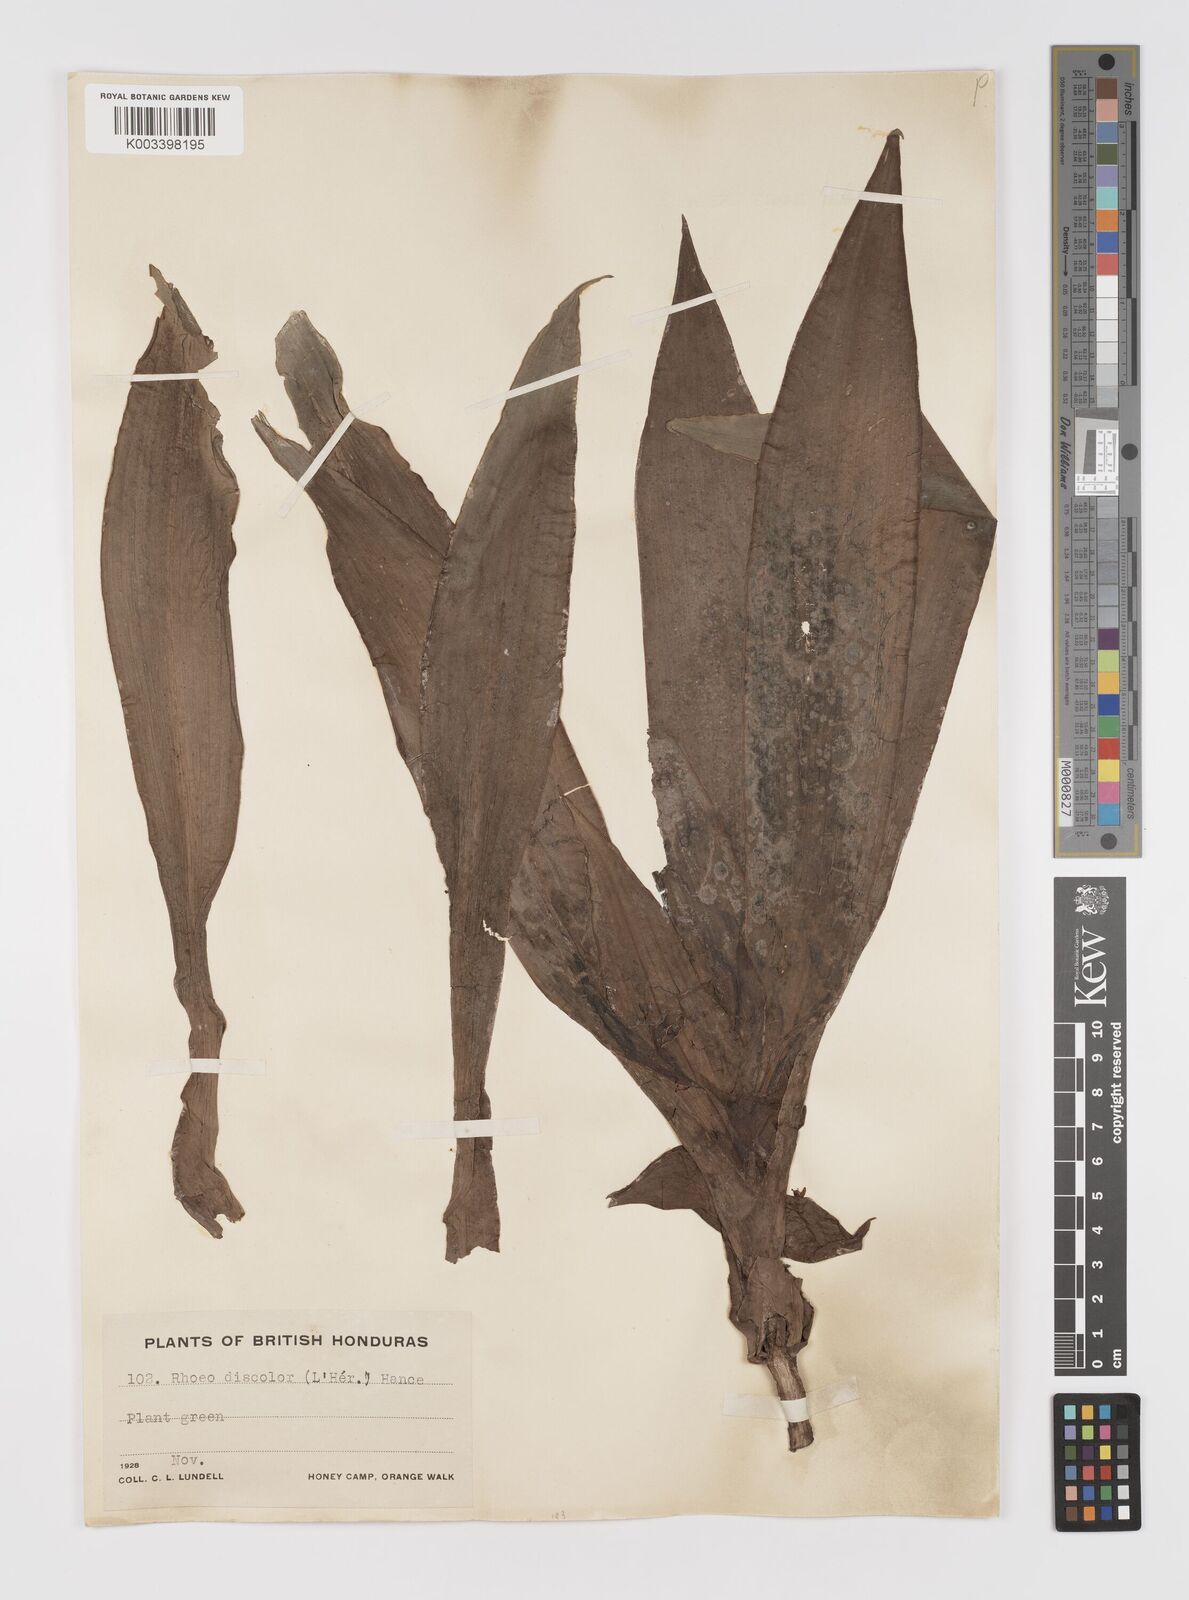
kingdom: Plantae
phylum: Tracheophyta
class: Liliopsida
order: Commelinales
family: Commelinaceae
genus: Tradescantia
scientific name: Tradescantia spathacea
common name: Boatlily
